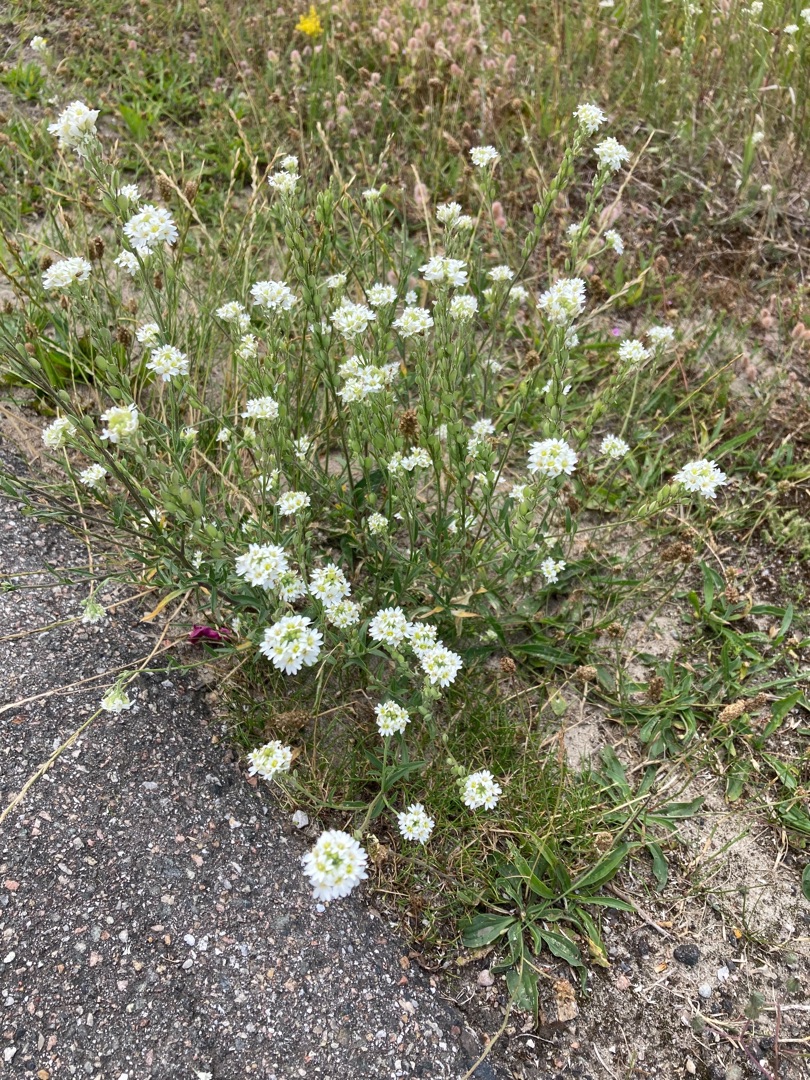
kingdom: Plantae
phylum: Tracheophyta
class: Magnoliopsida
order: Brassicales
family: Brassicaceae
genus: Berteroa
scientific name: Berteroa incana
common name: Kløvplade
